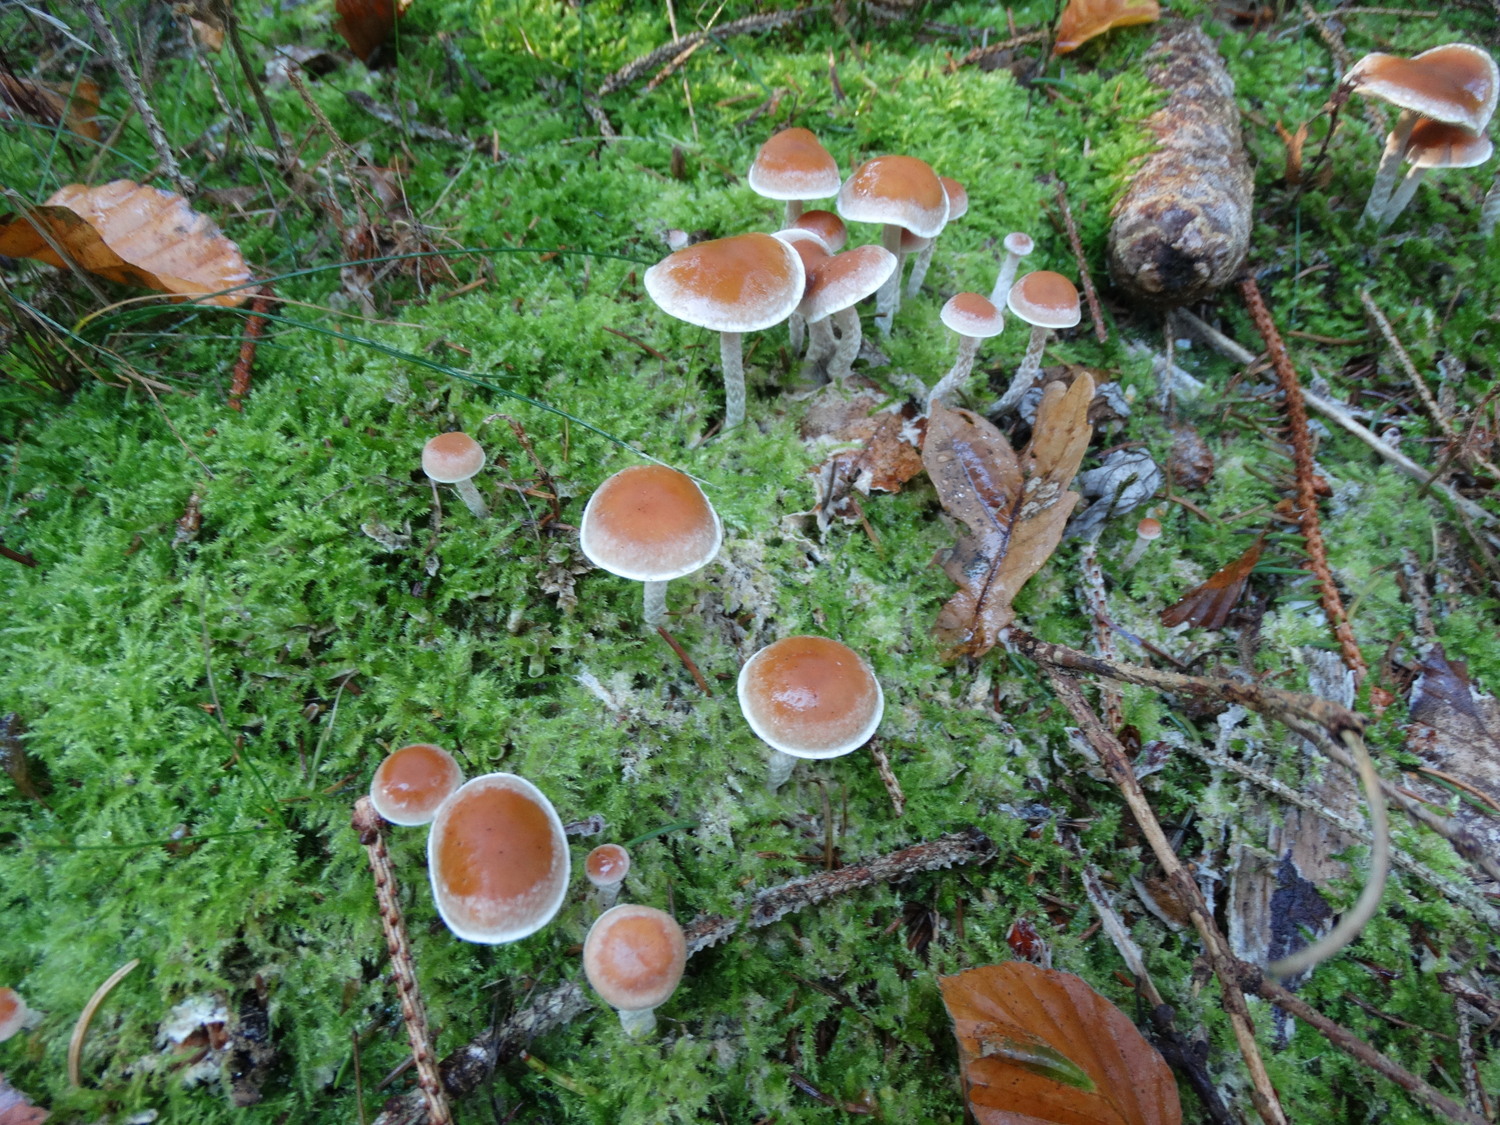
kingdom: Fungi
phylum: Basidiomycota
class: Agaricomycetes
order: Agaricales
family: Strophariaceae
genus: Hypholoma
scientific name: Hypholoma marginatum
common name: enlig svovlhat
